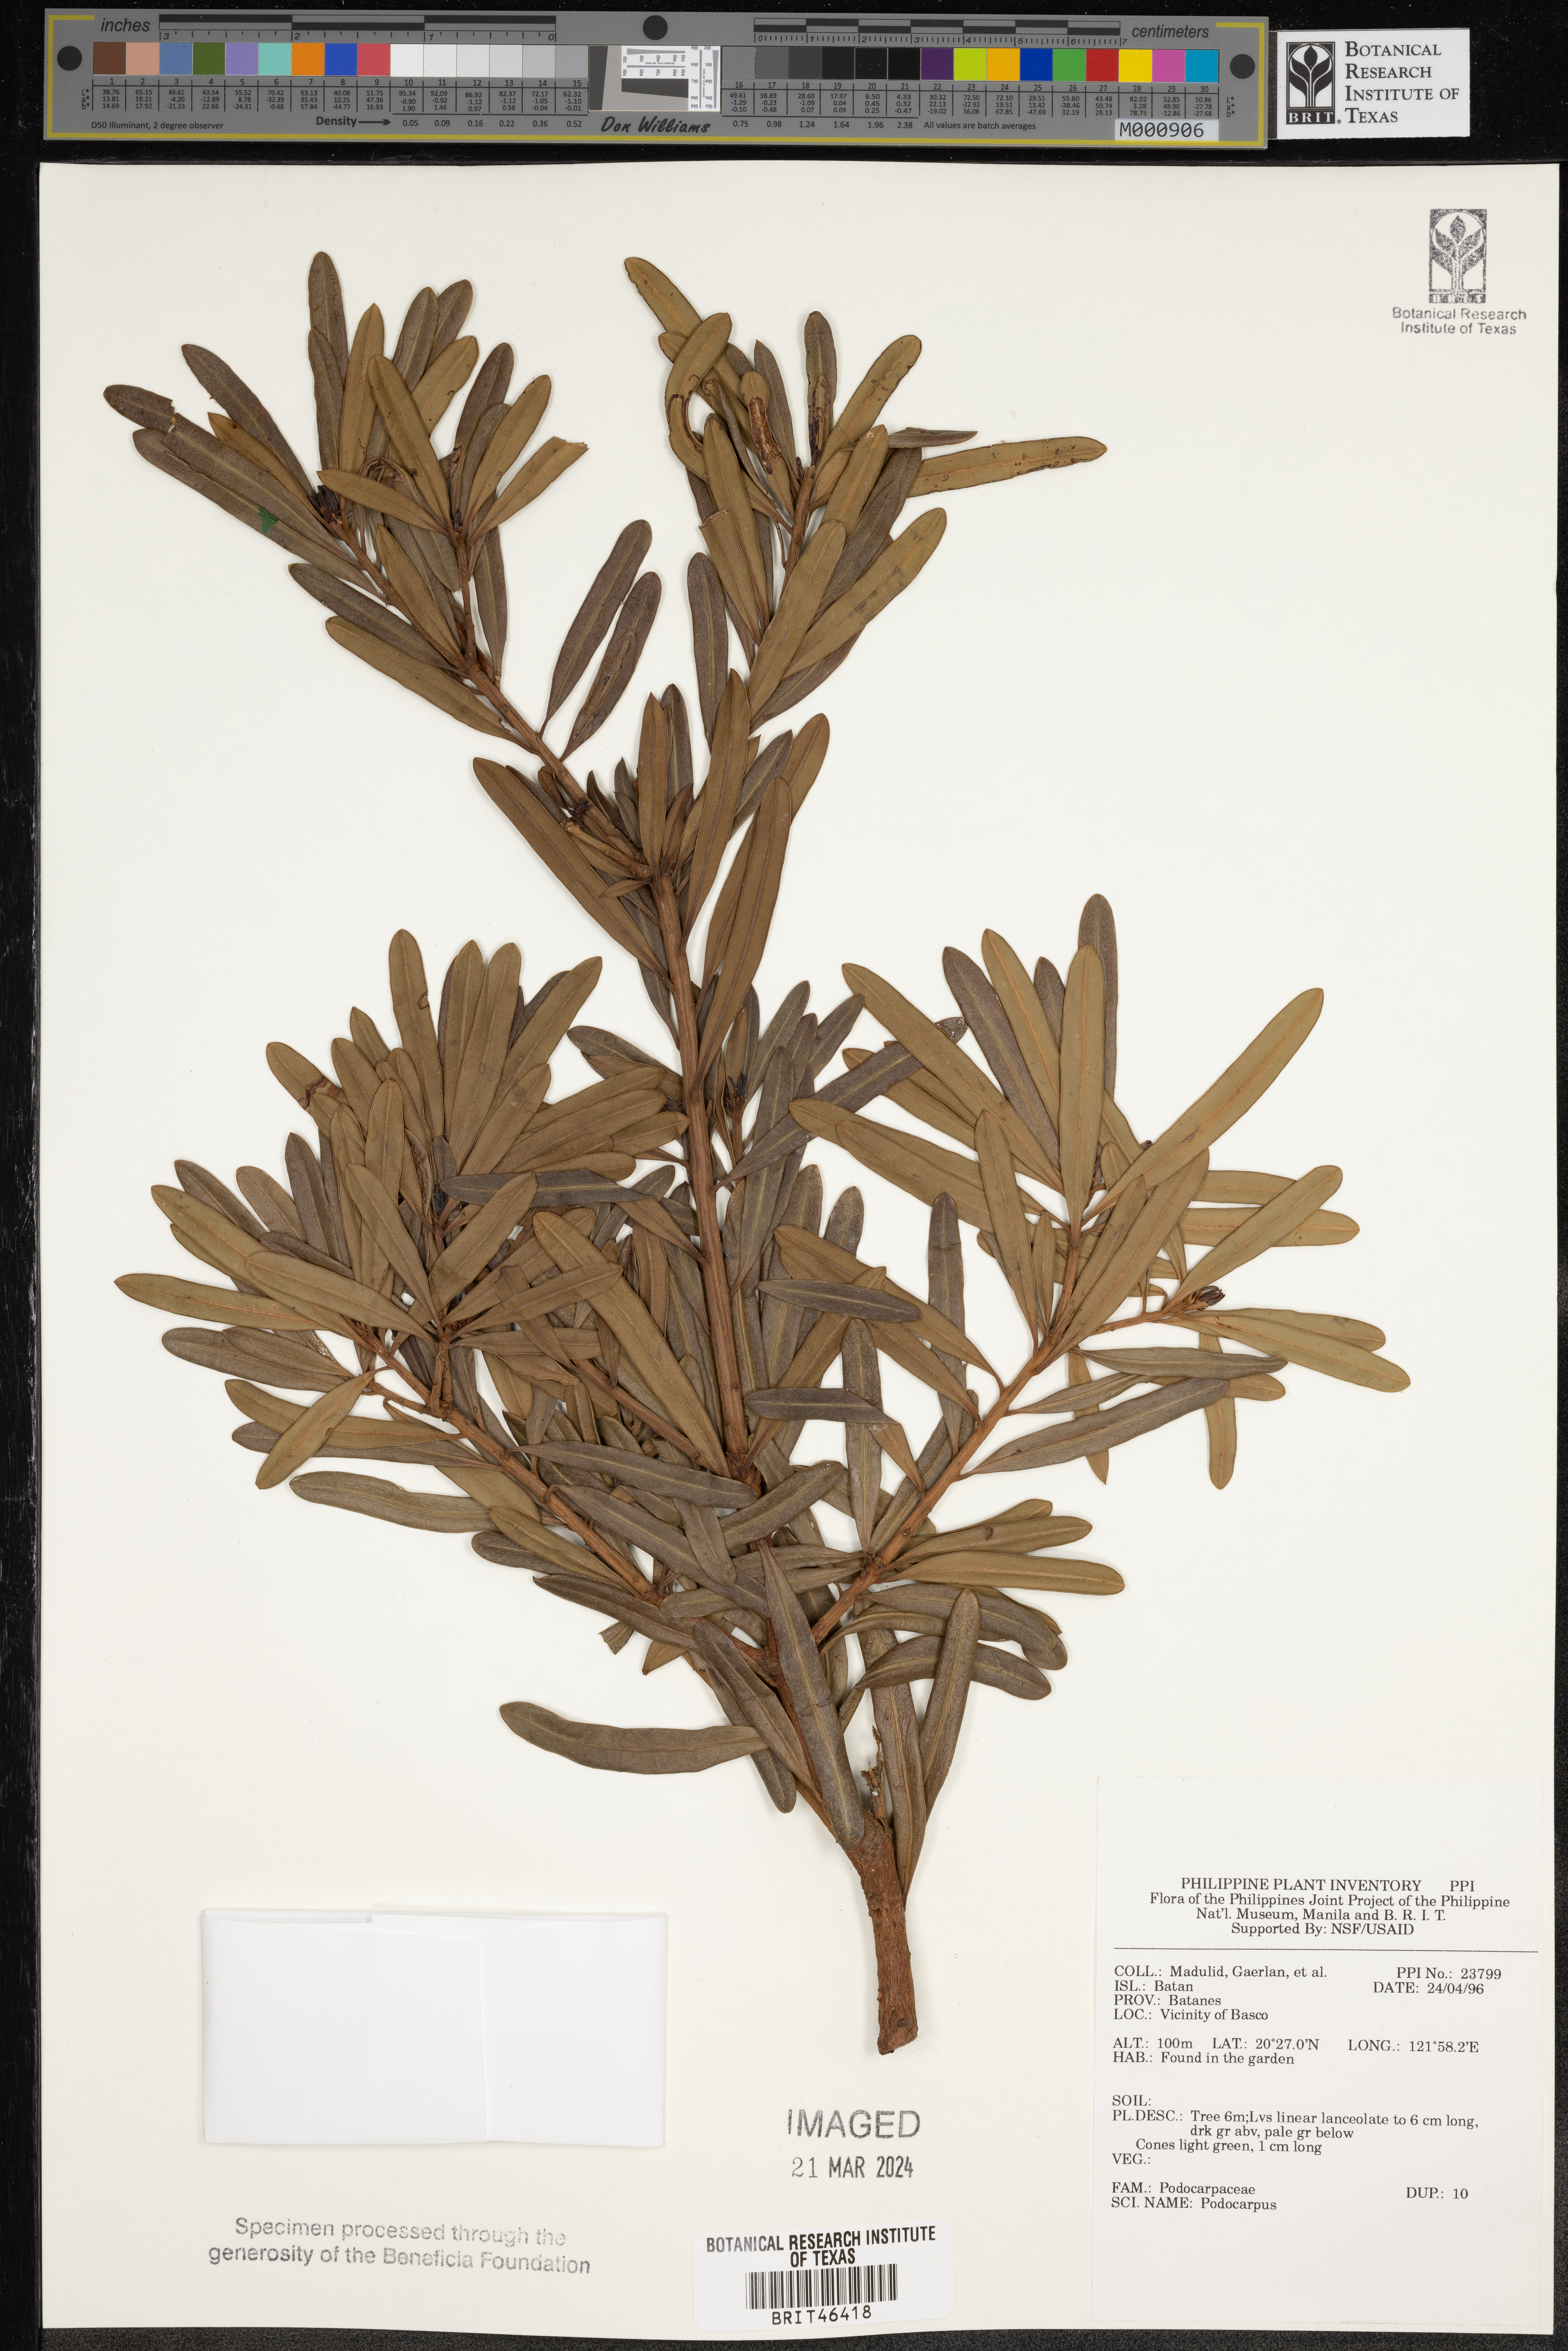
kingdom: Plantae
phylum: Tracheophyta
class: Pinopsida
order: Pinales
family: Podocarpaceae
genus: Podocarpus
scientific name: Podocarpus
